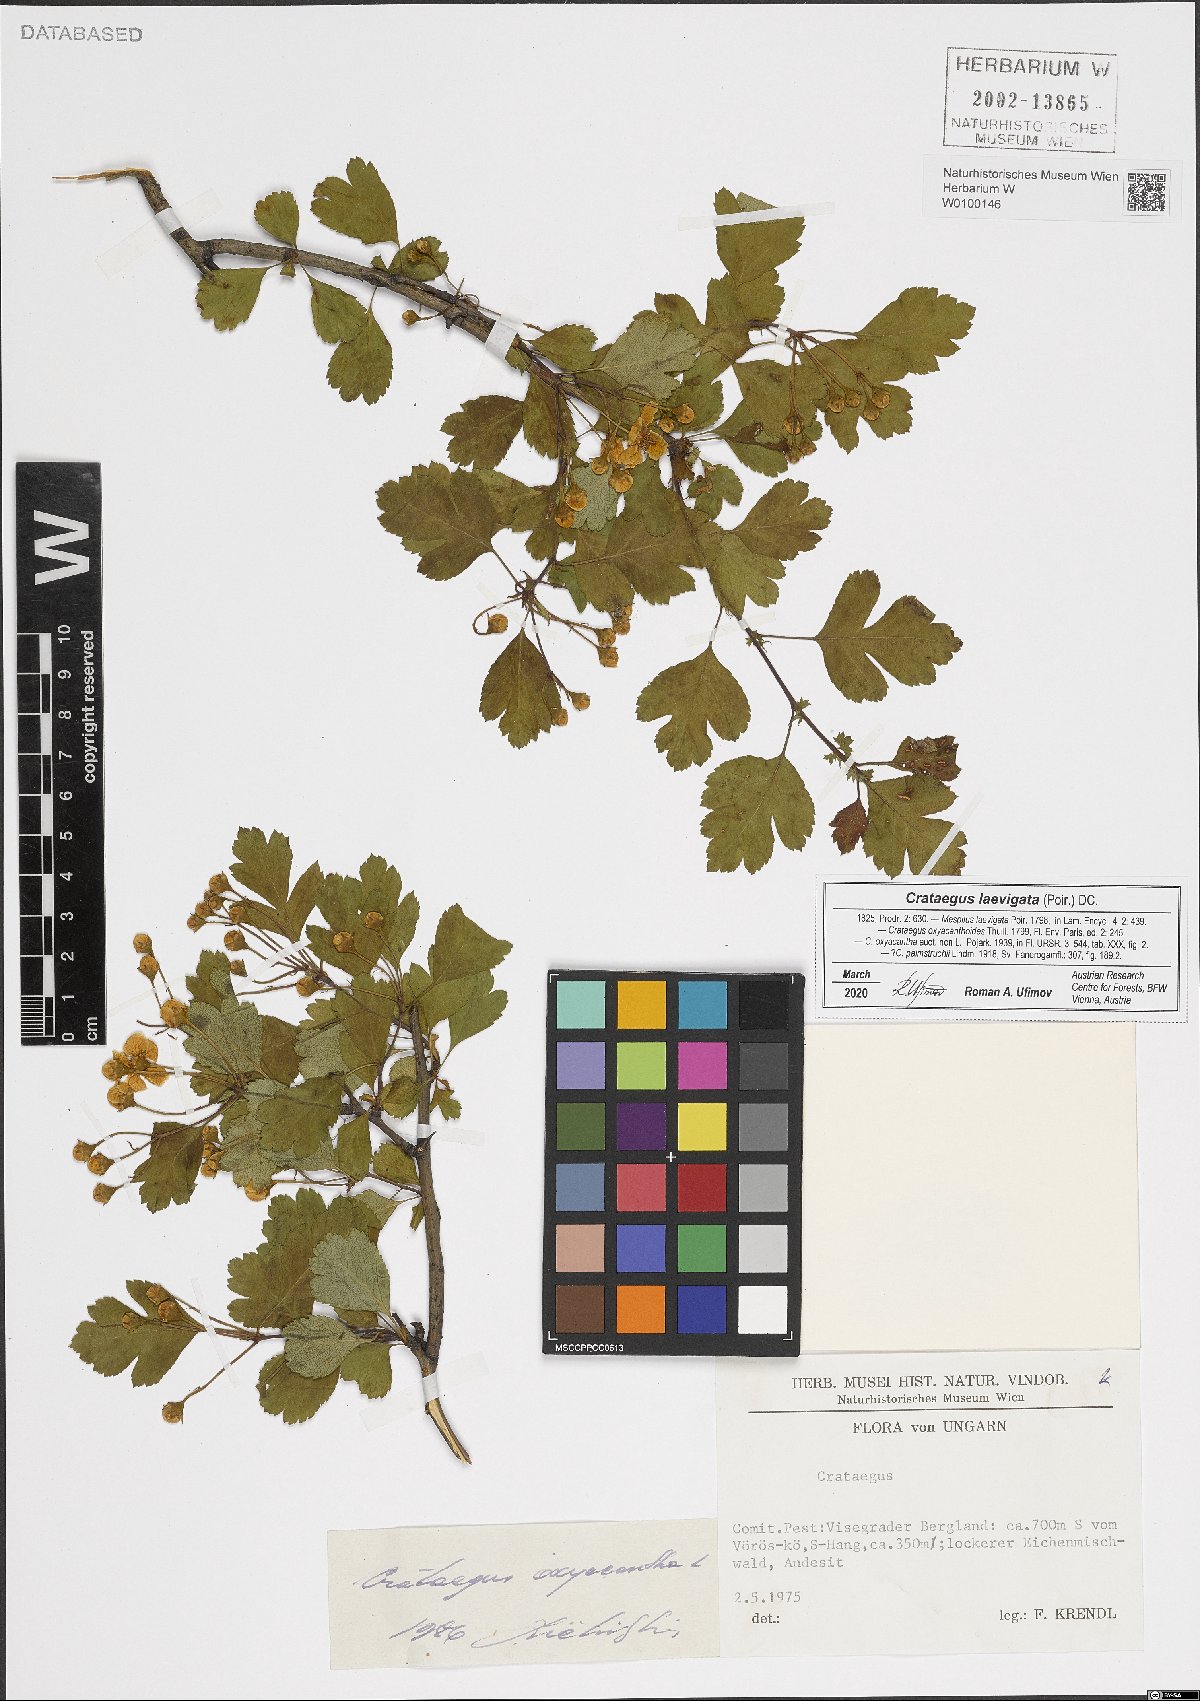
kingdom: Plantae
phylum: Tracheophyta
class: Magnoliopsida
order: Rosales
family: Rosaceae
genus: Crataegus
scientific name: Crataegus laevigata
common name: Midland hawthorn
